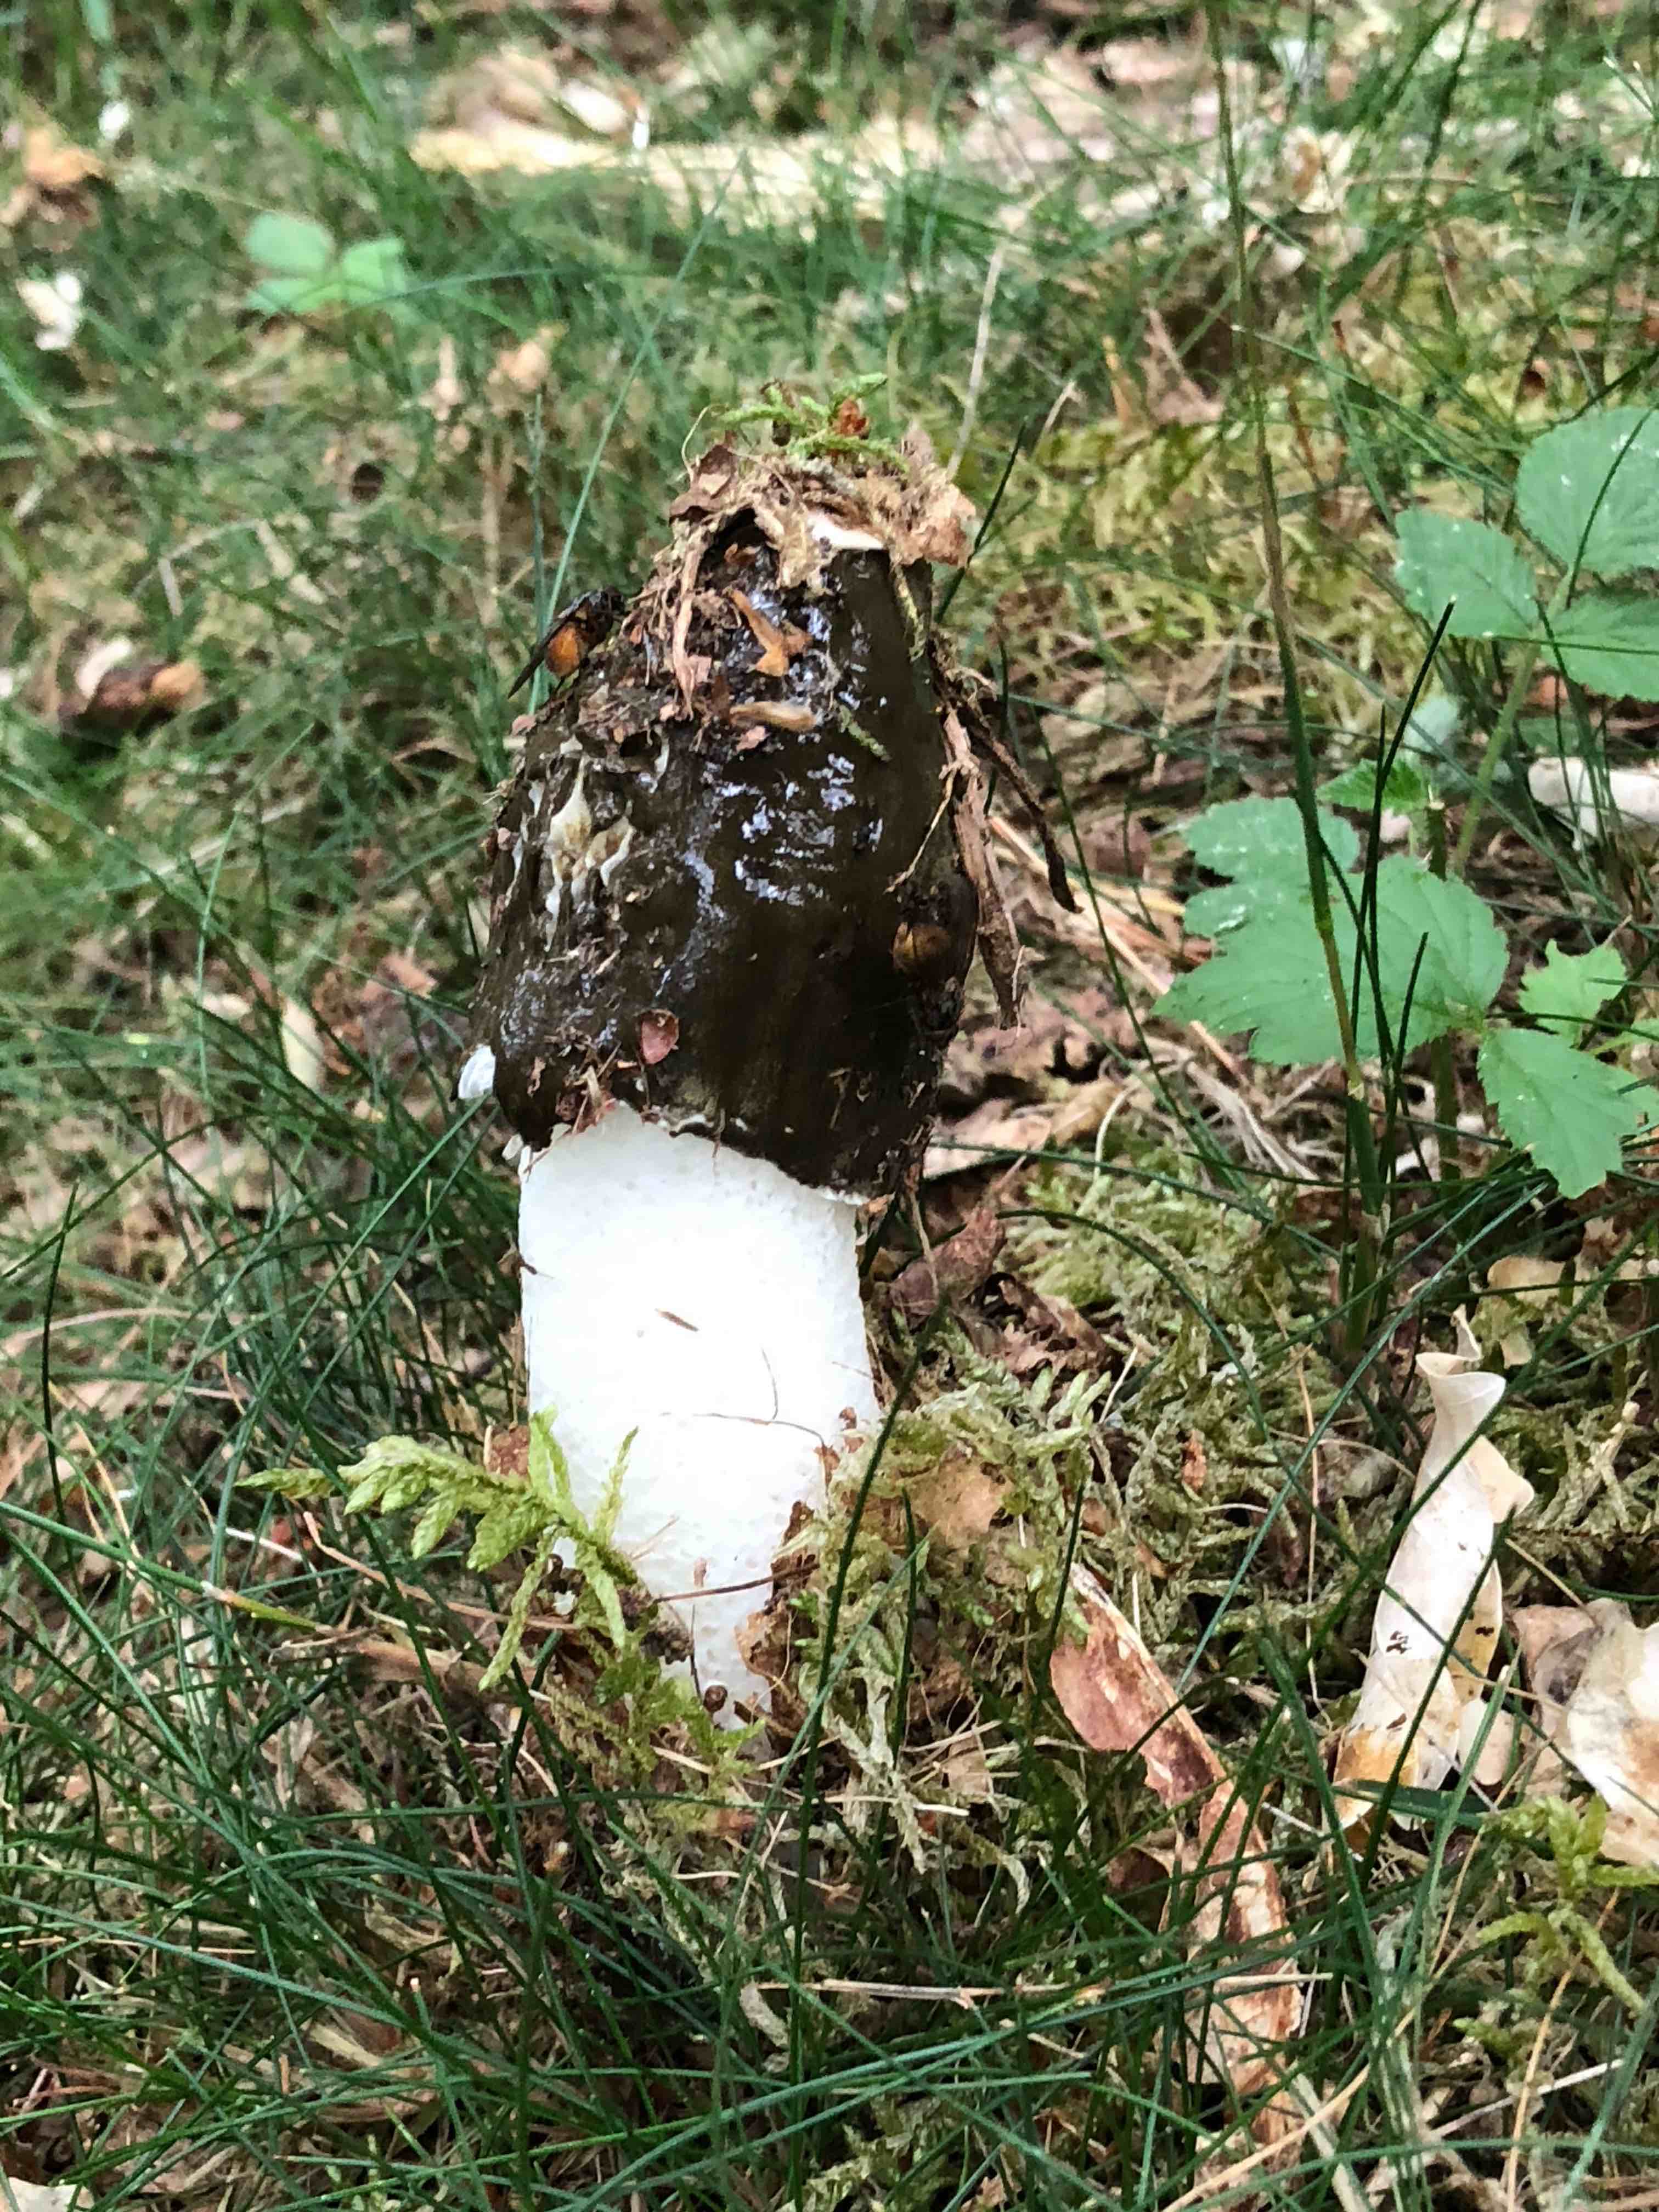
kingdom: Fungi
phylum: Basidiomycota
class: Agaricomycetes
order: Phallales
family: Phallaceae
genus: Phallus
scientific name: Phallus impudicus
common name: almindelig stinksvamp
